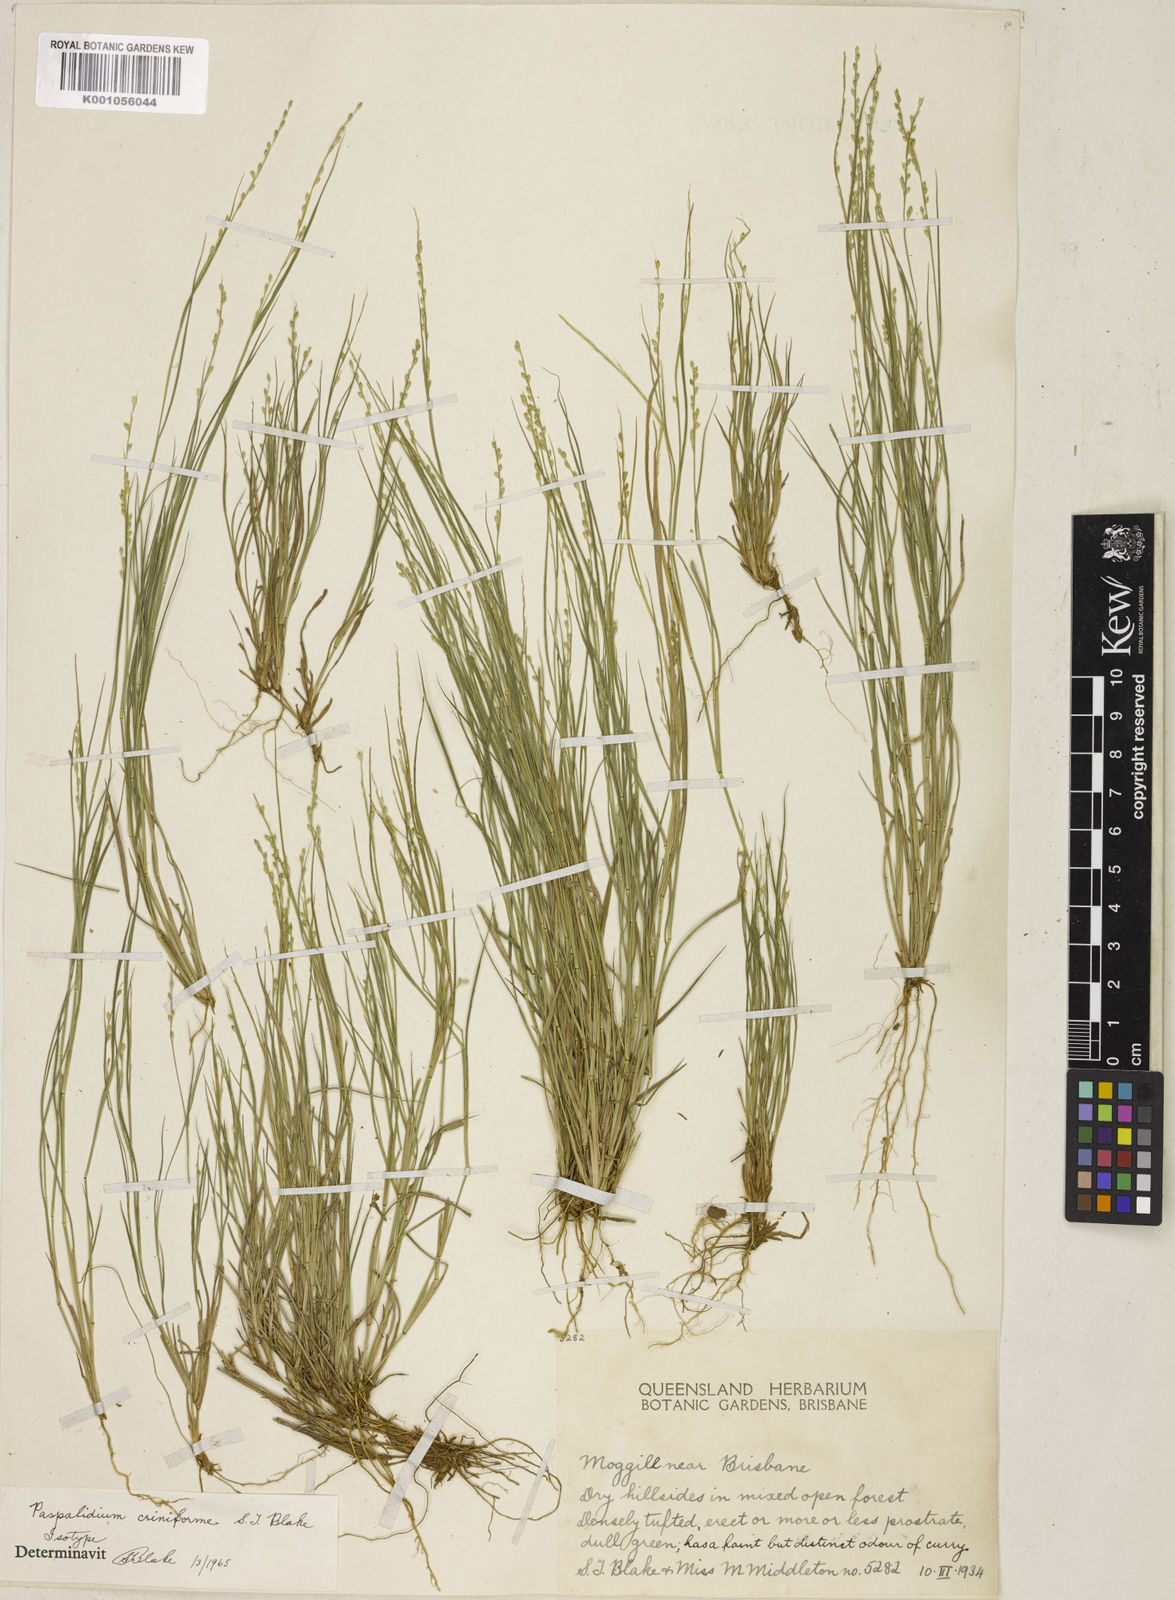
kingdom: Plantae
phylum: Tracheophyta
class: Liliopsida
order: Poales
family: Poaceae
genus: Setaria
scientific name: Setaria criniformis
